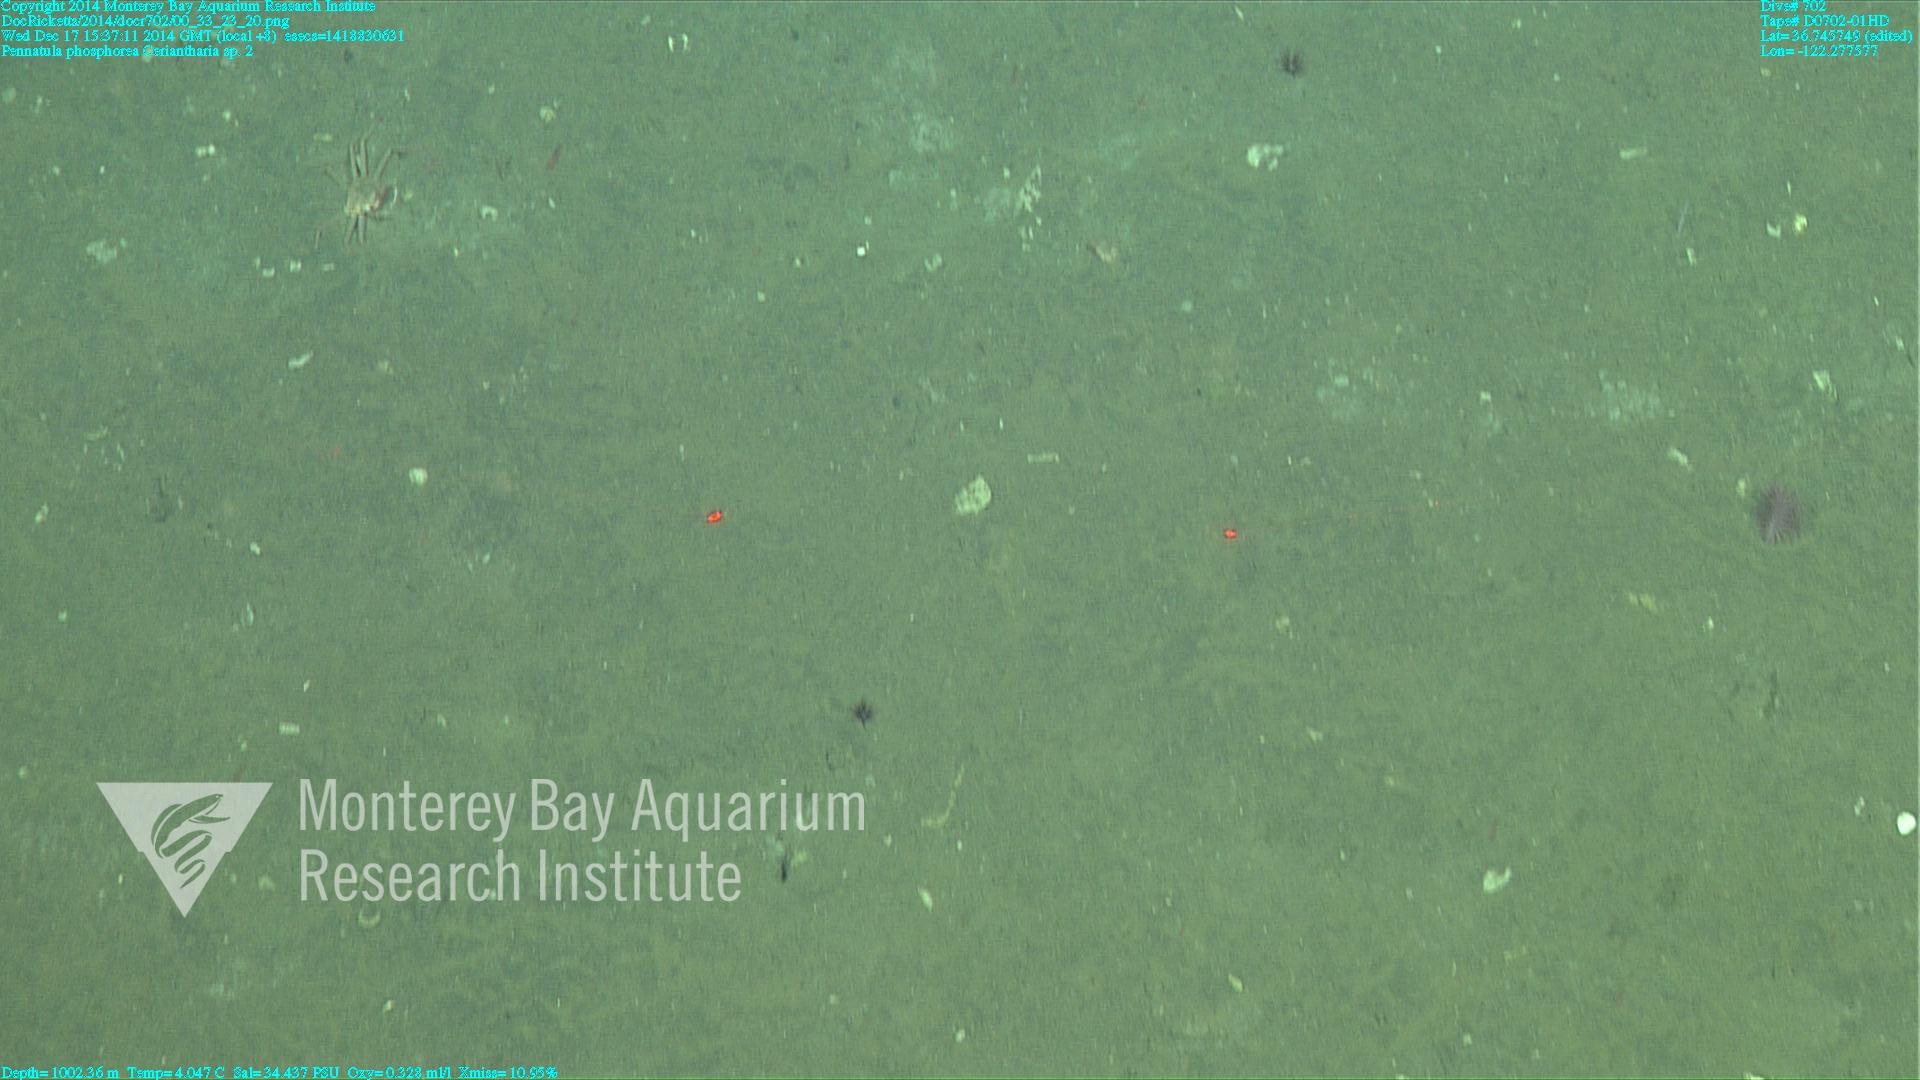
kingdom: Animalia
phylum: Cnidaria
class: Anthozoa
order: Scleralcyonacea
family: Pennatulidae
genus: Pennatula
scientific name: Pennatula phosphorea
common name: Phosphorescent sea pen
